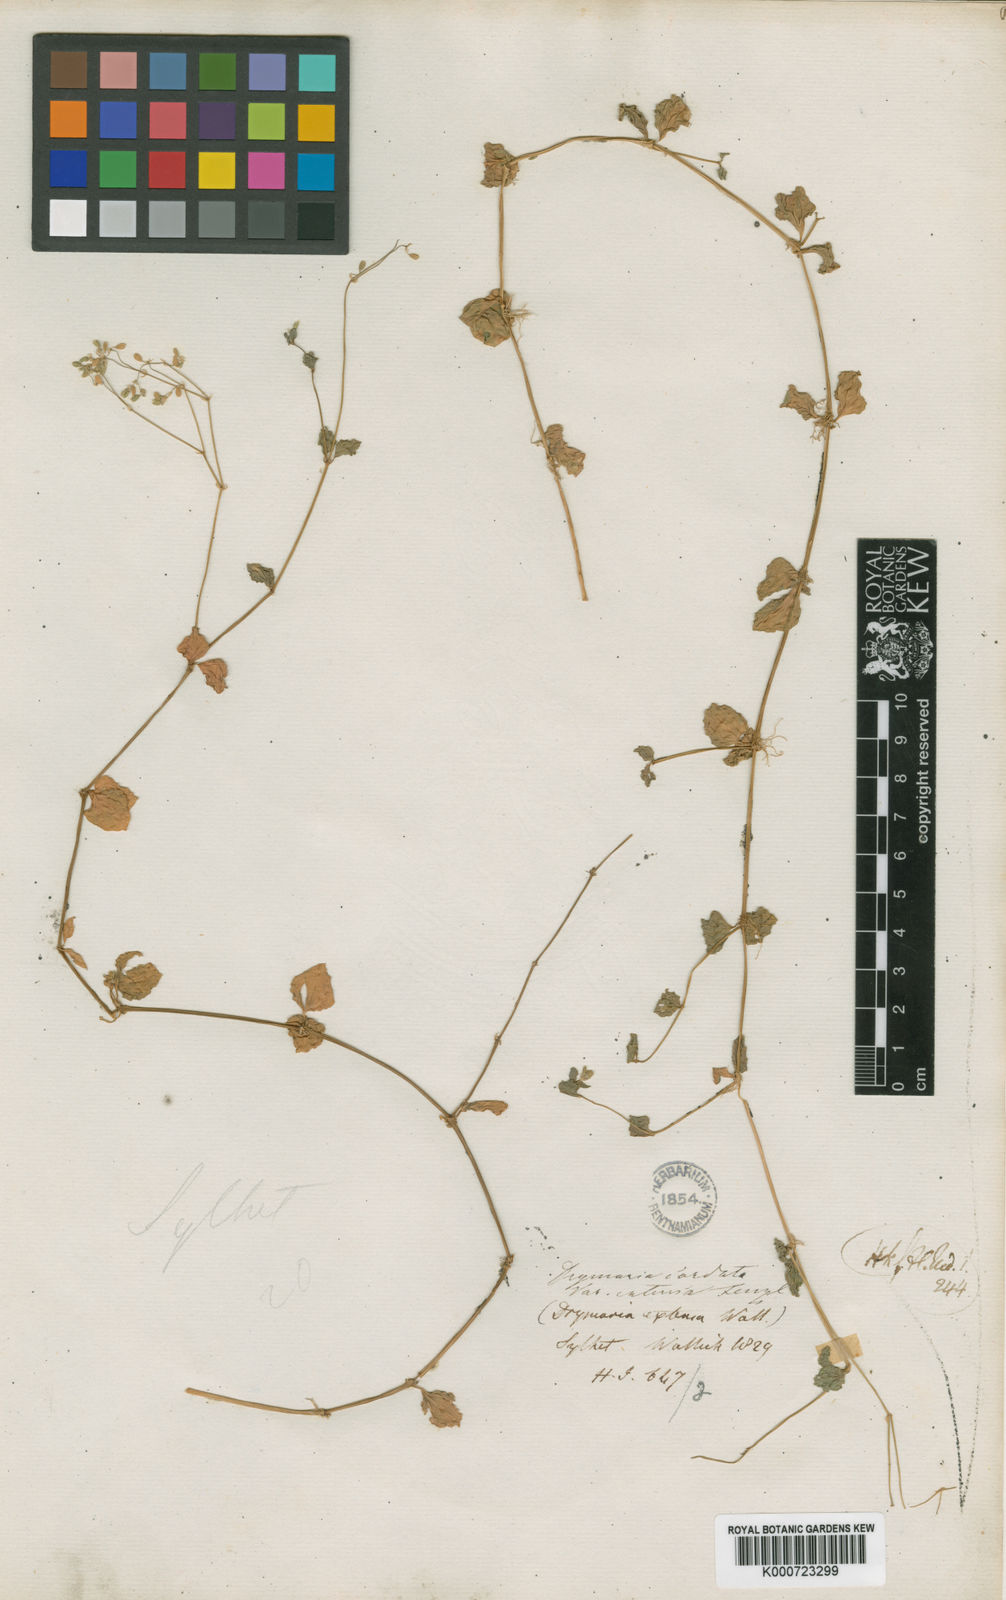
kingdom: Plantae
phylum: Tracheophyta
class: Magnoliopsida
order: Caryophyllales
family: Caryophyllaceae
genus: Drymaria
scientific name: Drymaria cordata
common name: Whitesnow
